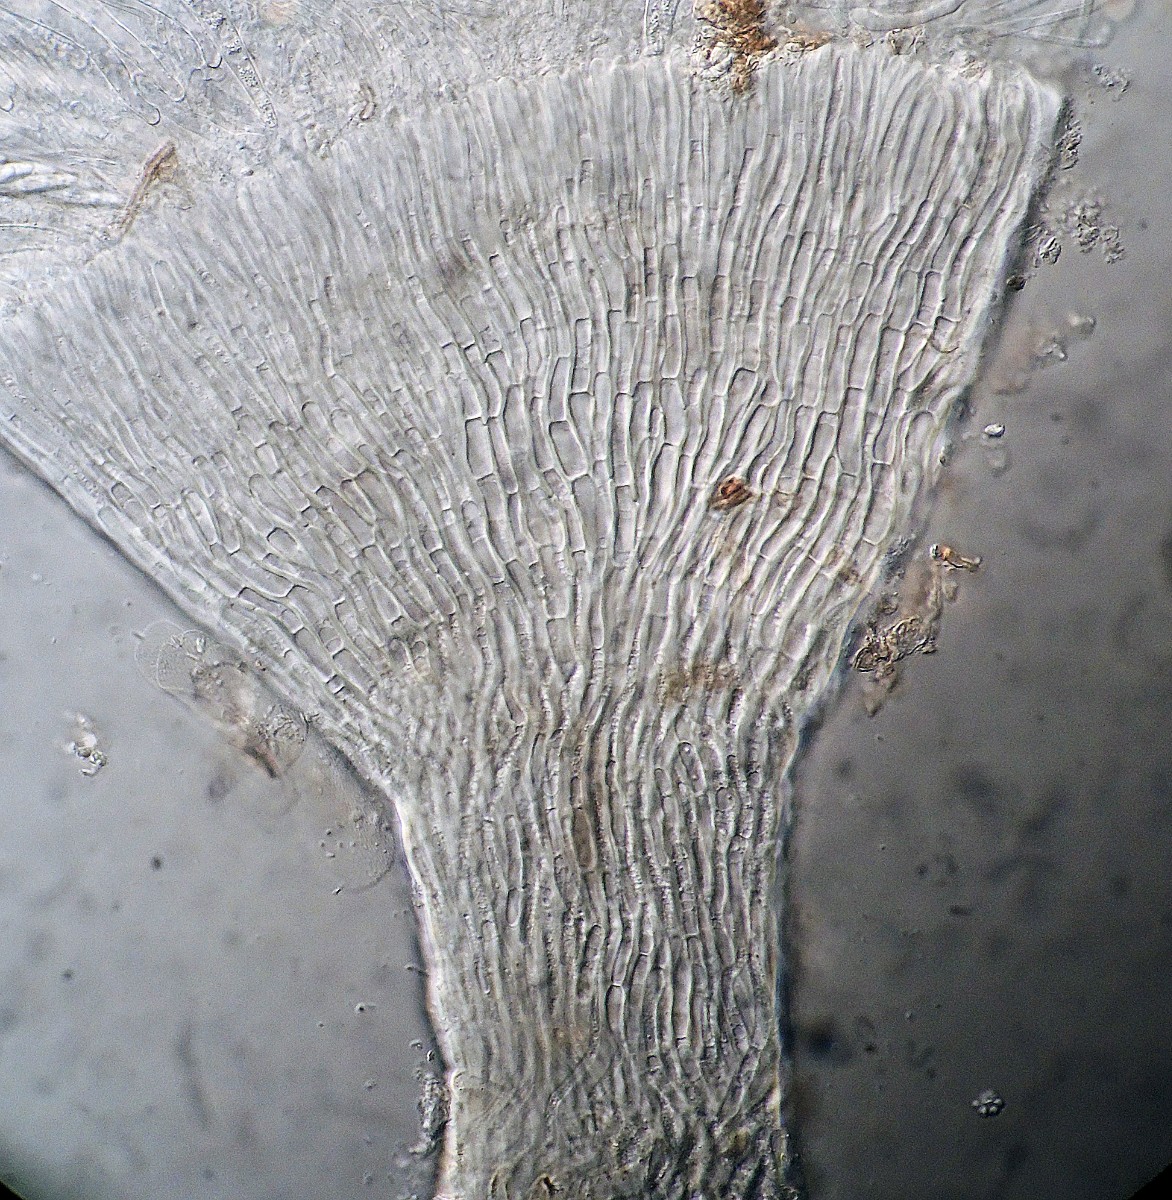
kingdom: Fungi
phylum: Ascomycota
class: Leotiomycetes
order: Helotiales
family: Pezizellaceae
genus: Allophylaria
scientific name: Allophylaria byssacea
